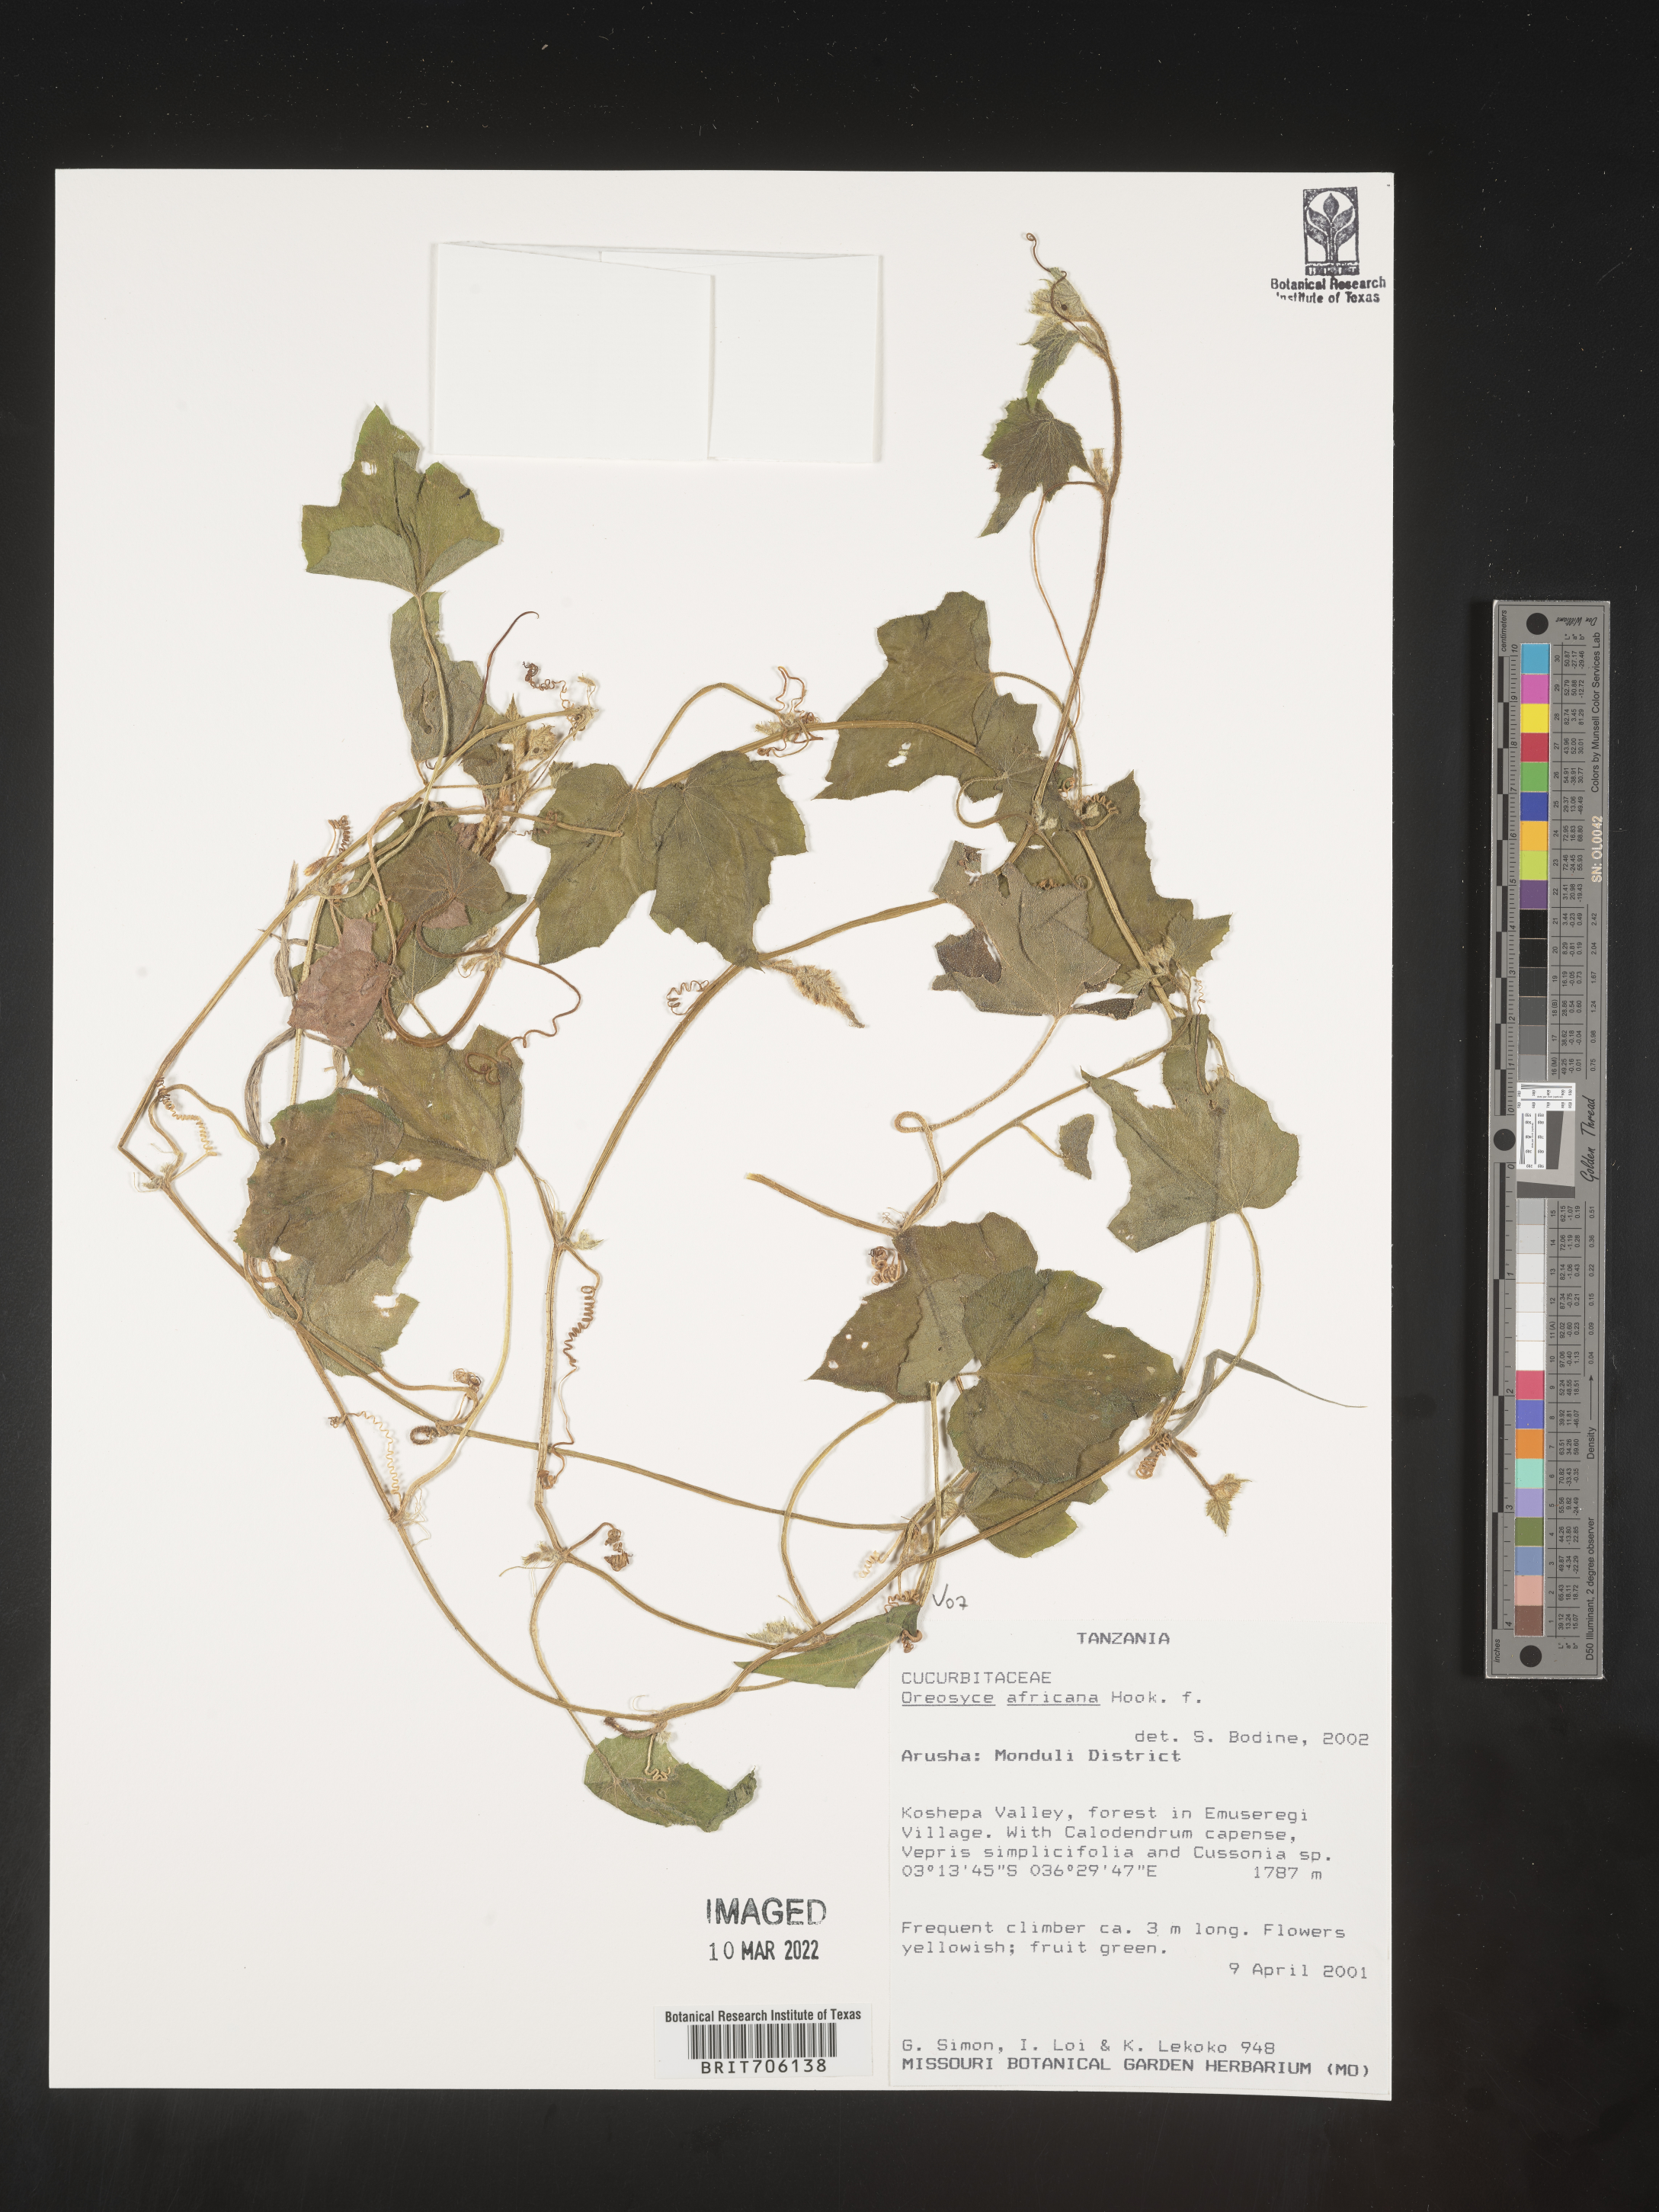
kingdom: Plantae
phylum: Tracheophyta
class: Magnoliopsida
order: Cucurbitales
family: Cucurbitaceae
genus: Oreosyce
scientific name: Oreosyce
